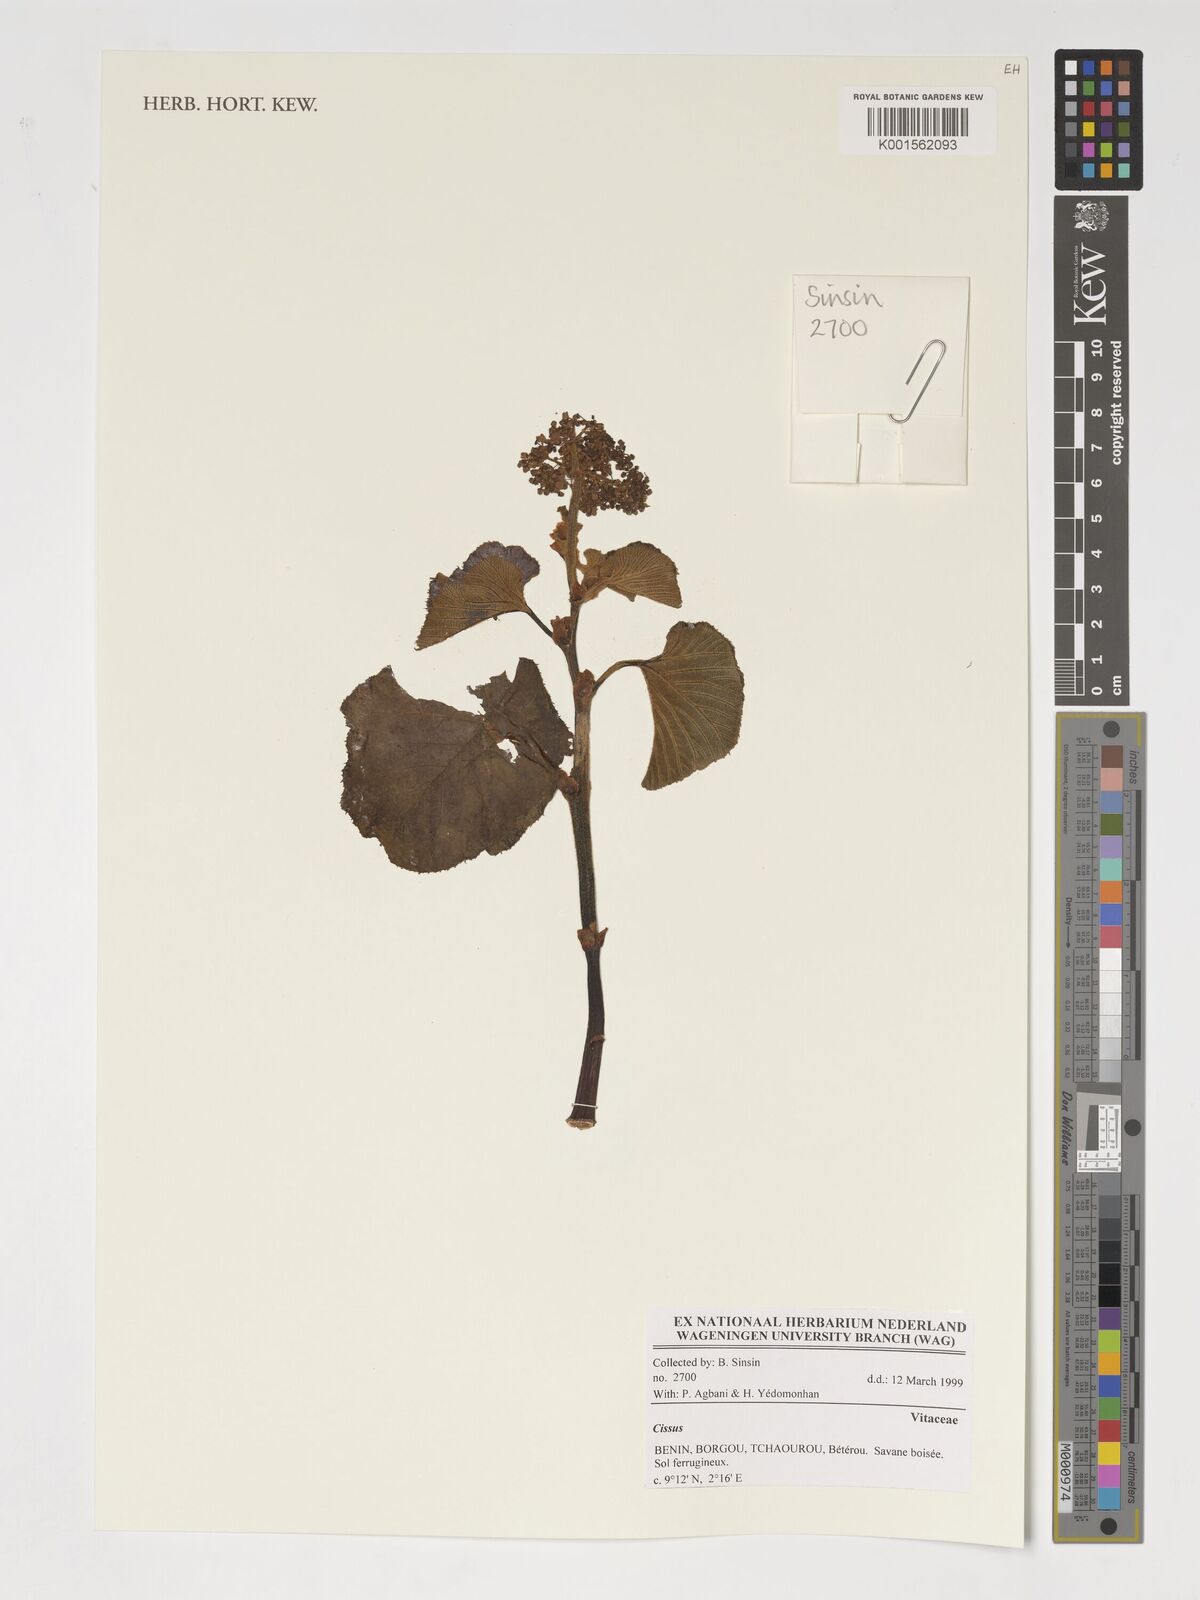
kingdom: Plantae
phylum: Tracheophyta
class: Magnoliopsida
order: Vitales
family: Vitaceae
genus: Cissus
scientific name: Cissus
